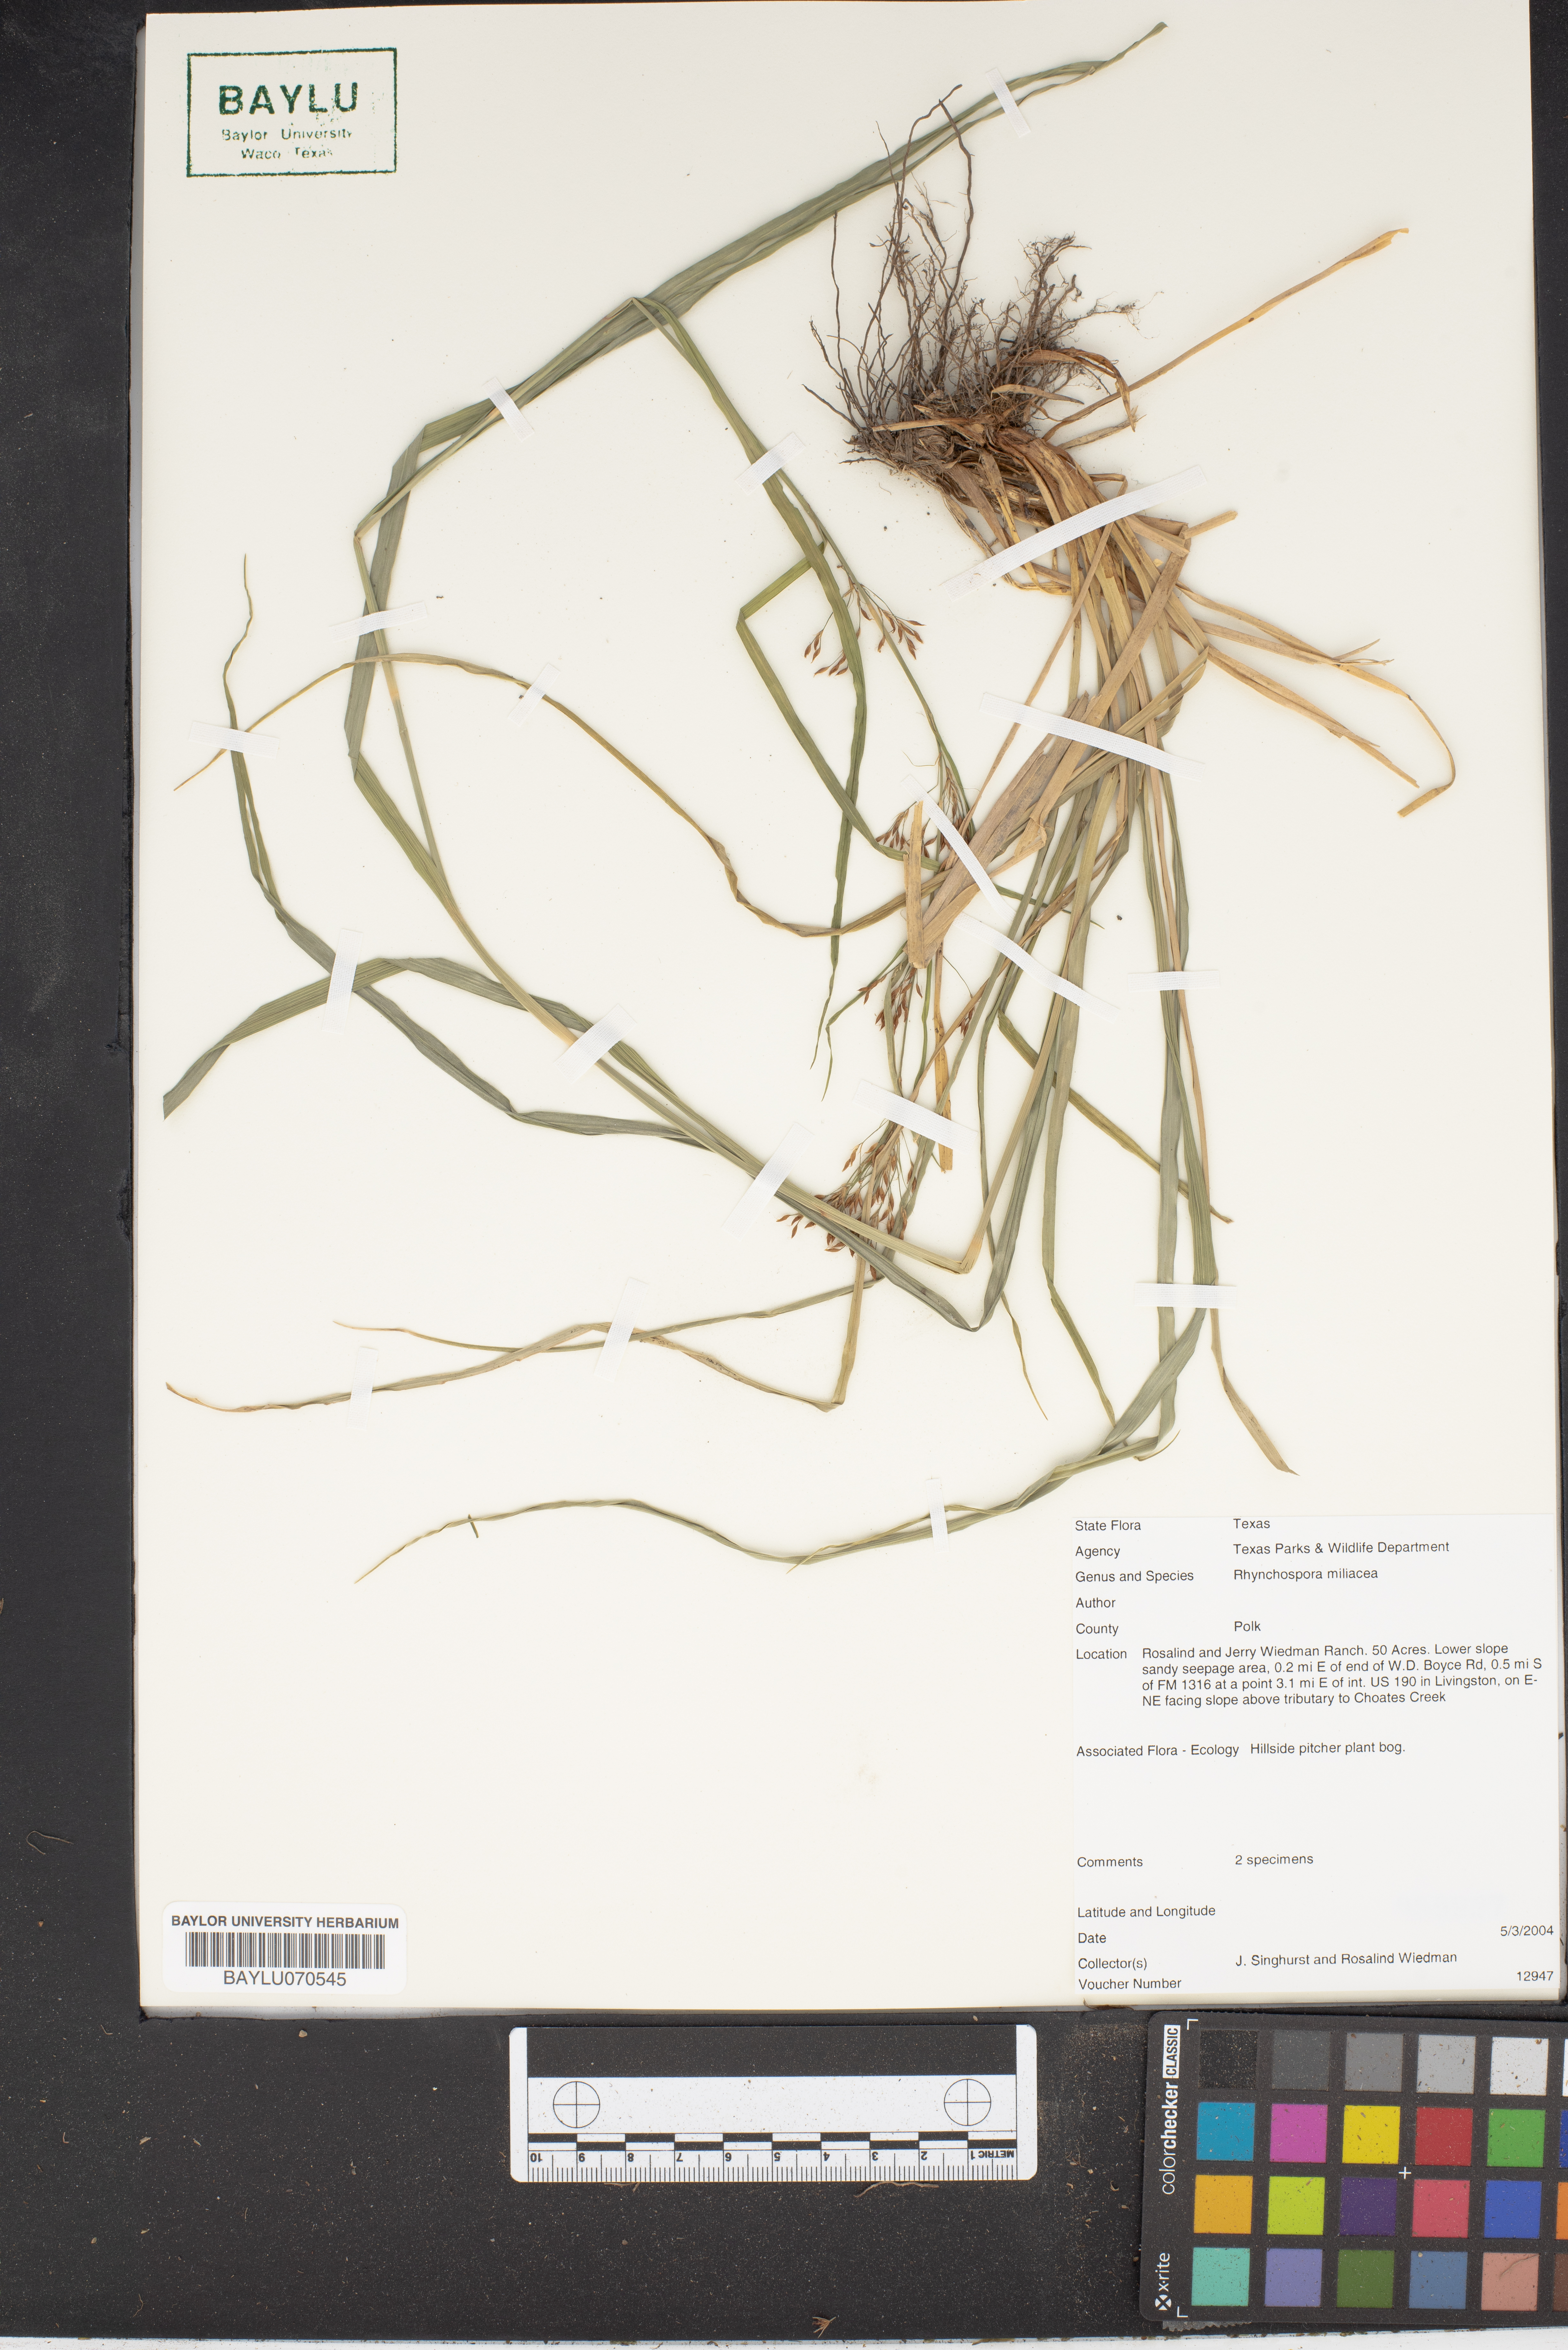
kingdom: Plantae
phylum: Tracheophyta
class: Liliopsida
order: Poales
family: Cyperaceae
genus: Rhynchospora
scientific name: Rhynchospora miliacea
